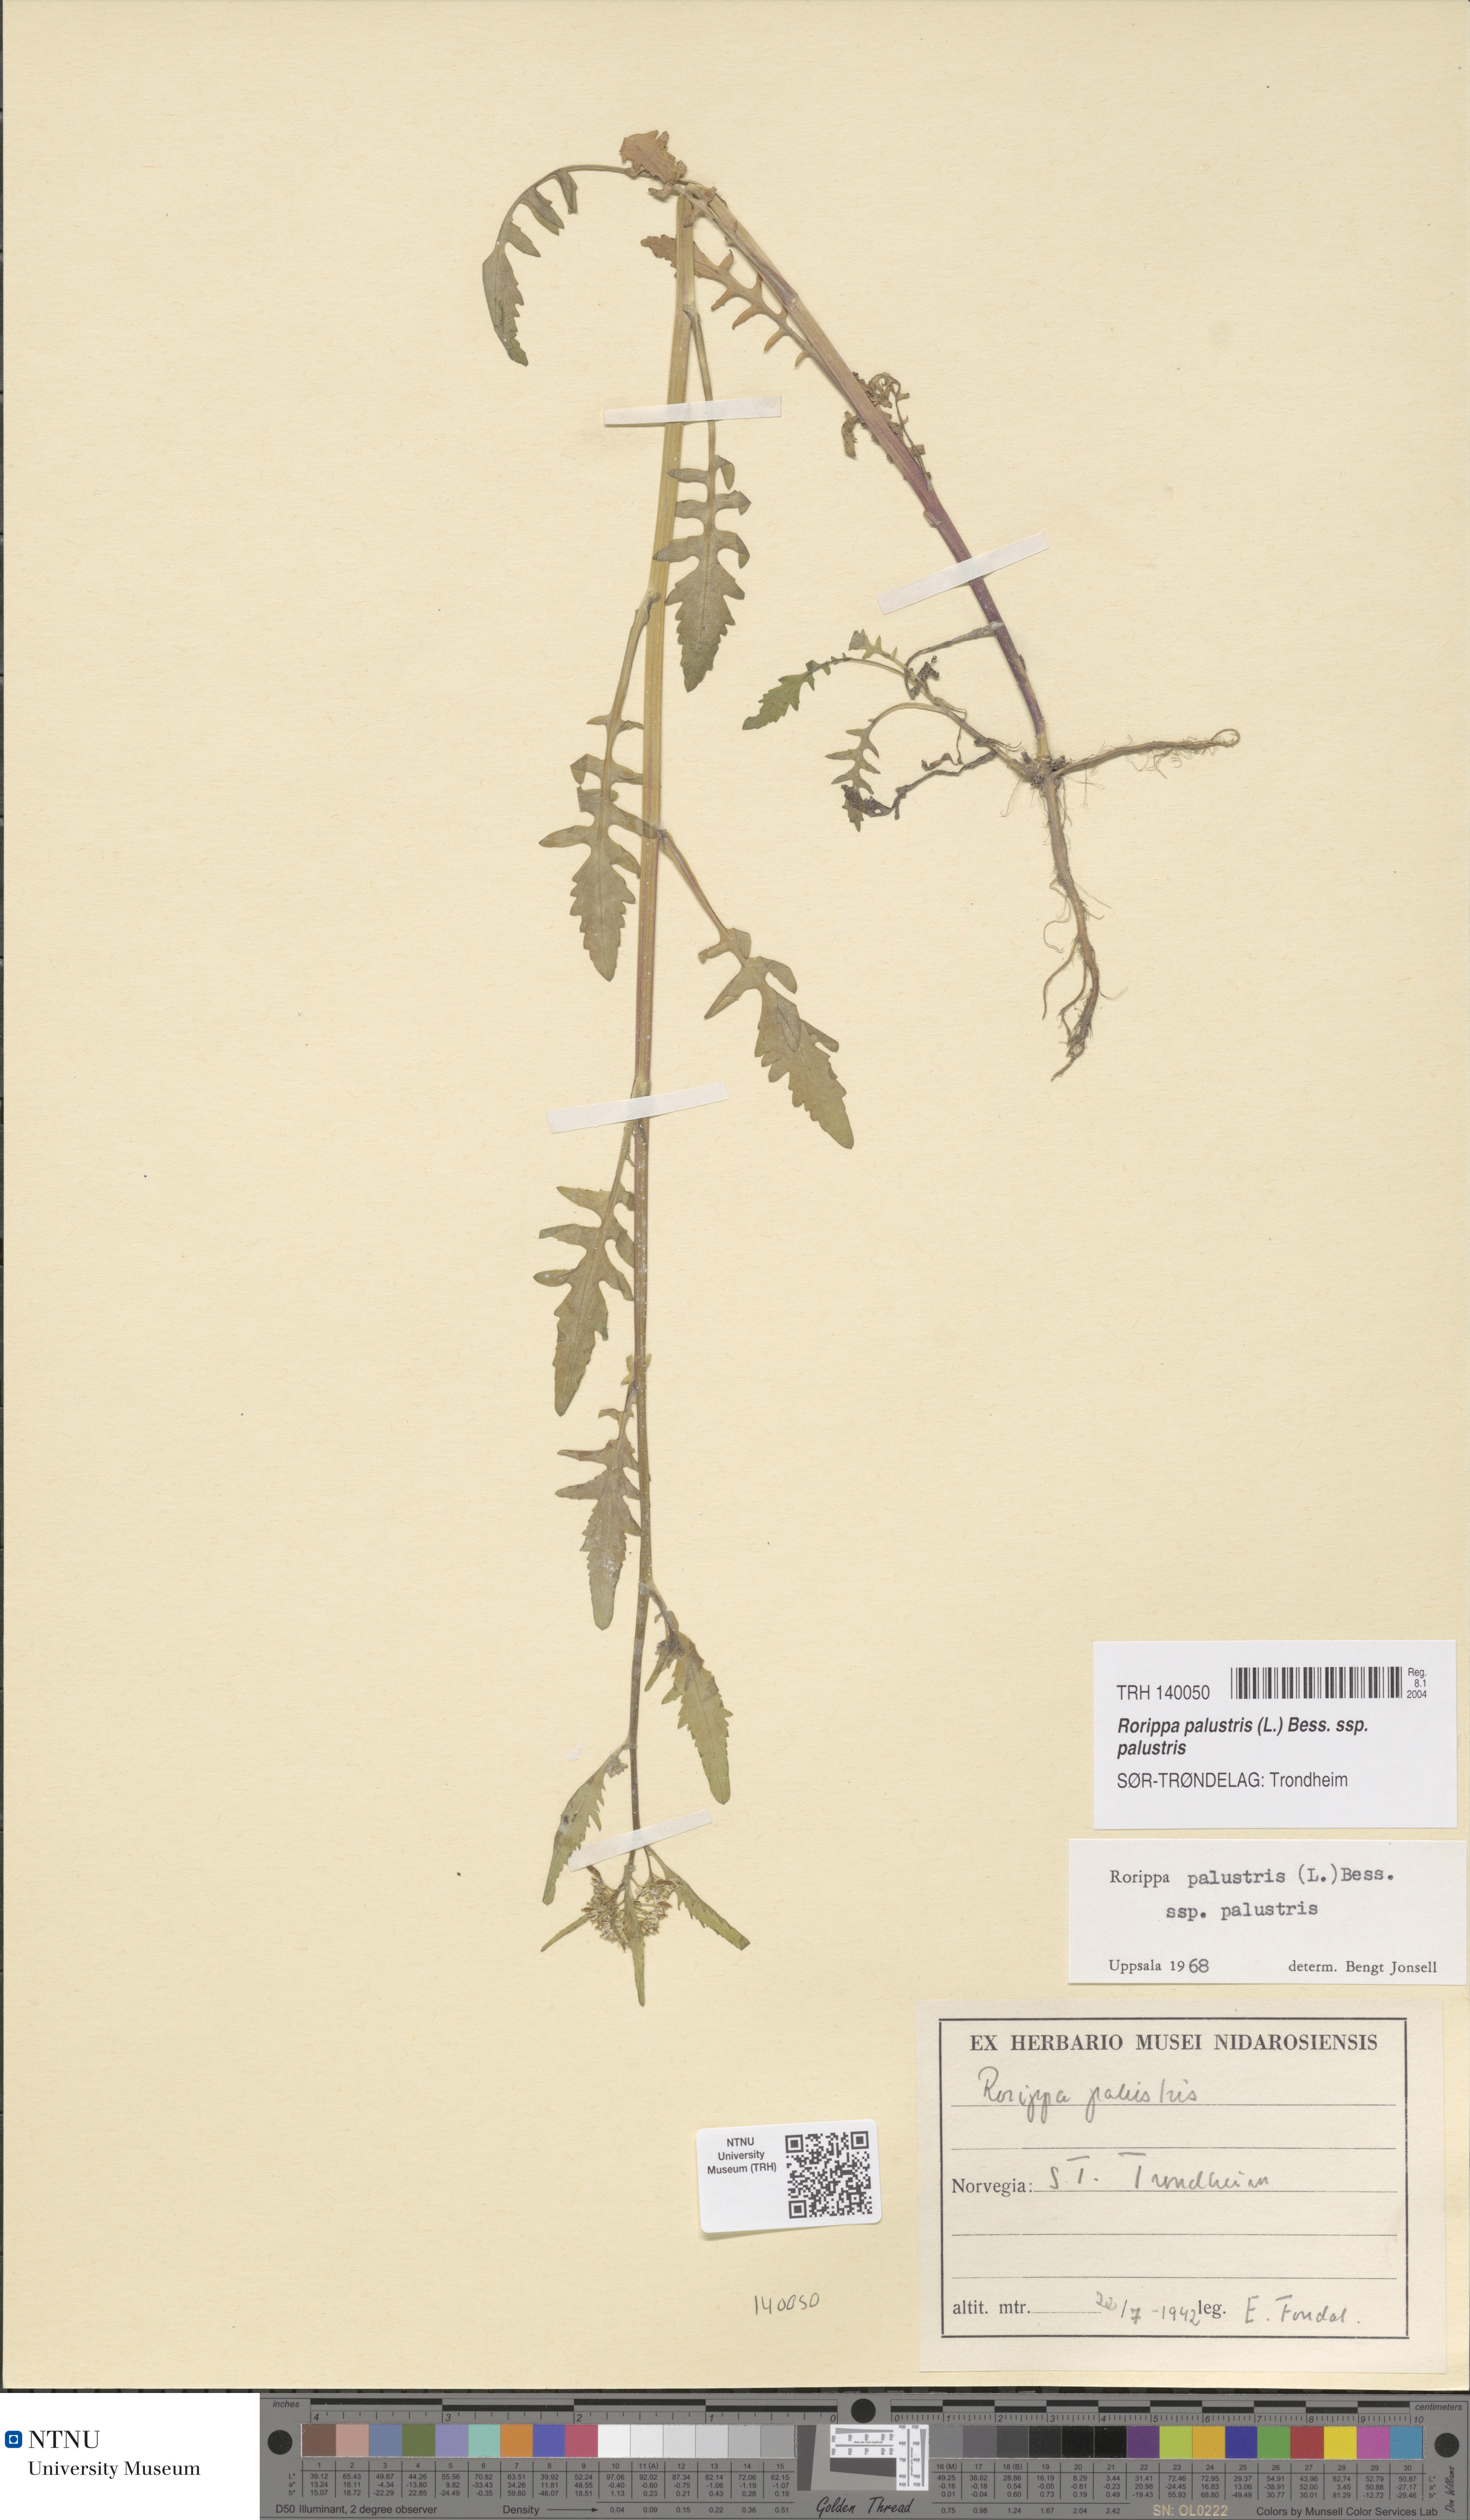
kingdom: Plantae
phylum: Tracheophyta
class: Magnoliopsida
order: Brassicales
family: Brassicaceae
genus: Rorippa
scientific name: Rorippa palustris
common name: Marsh yellow-cress
